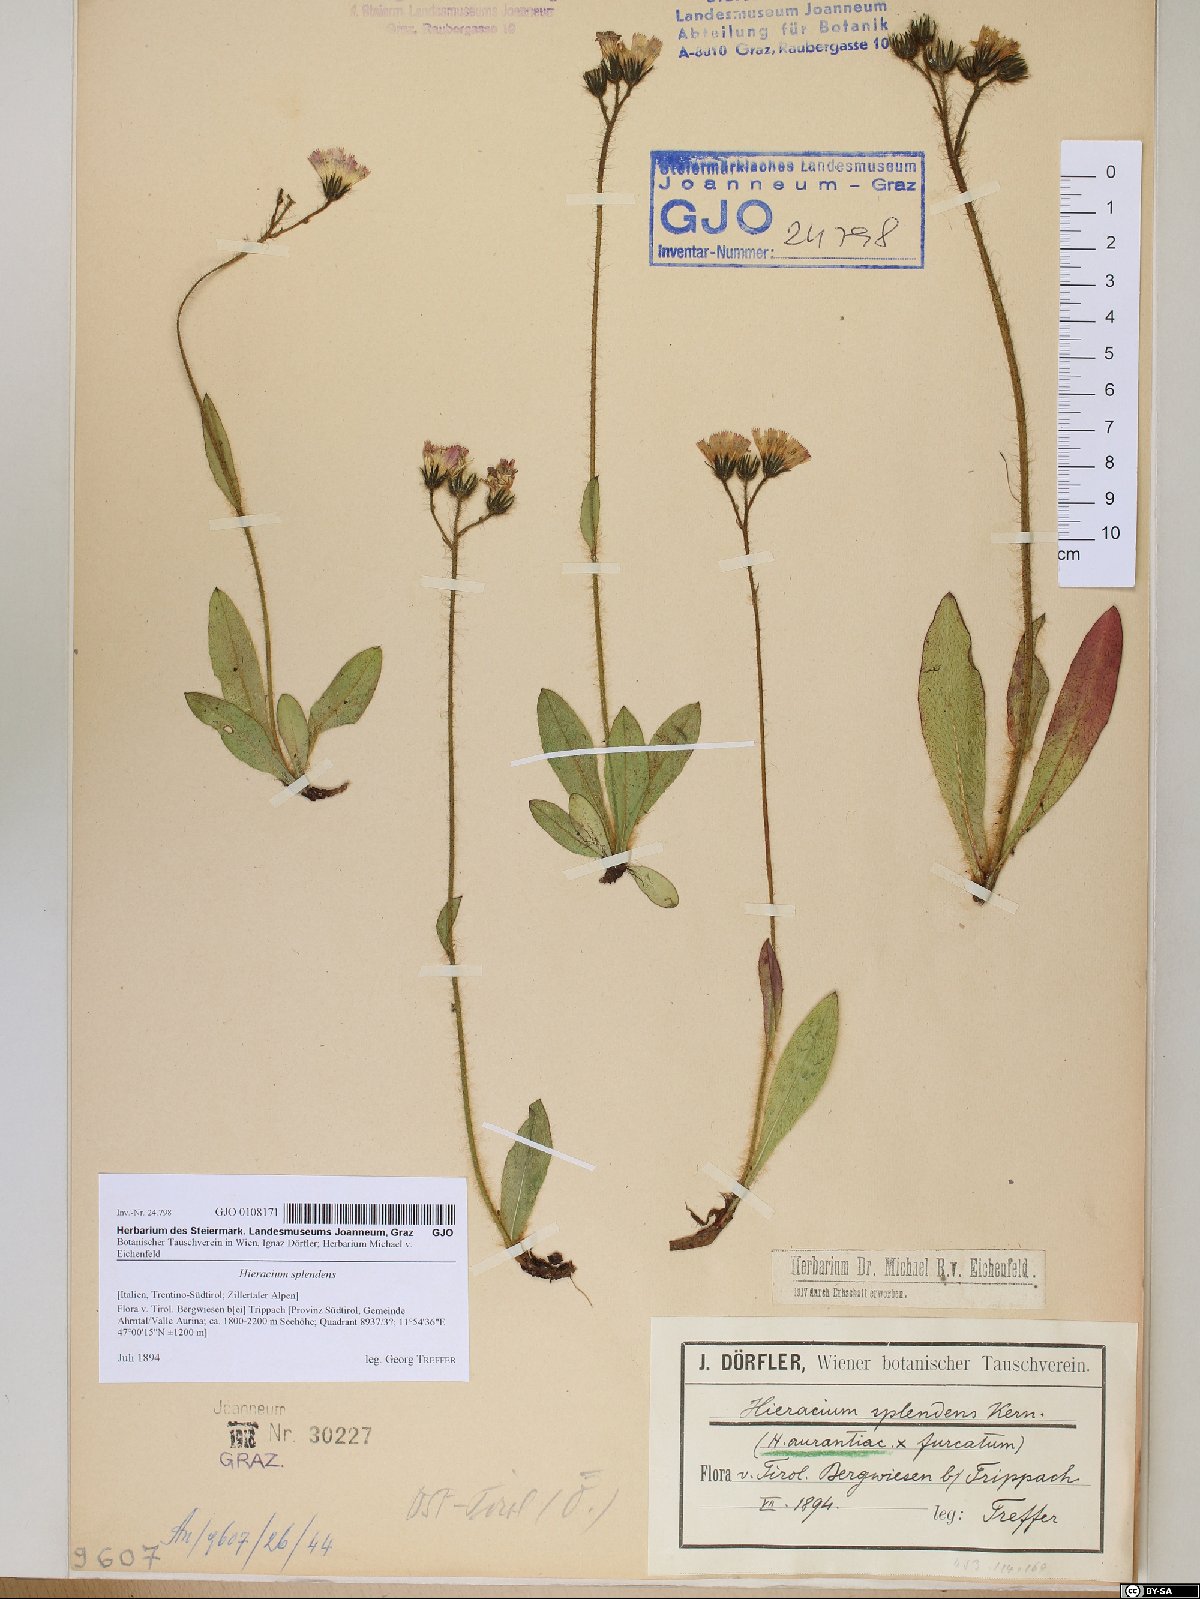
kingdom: Plantae
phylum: Tracheophyta
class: Magnoliopsida
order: Asterales
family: Asteraceae
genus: Hieracium
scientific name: Hieracium splendens
